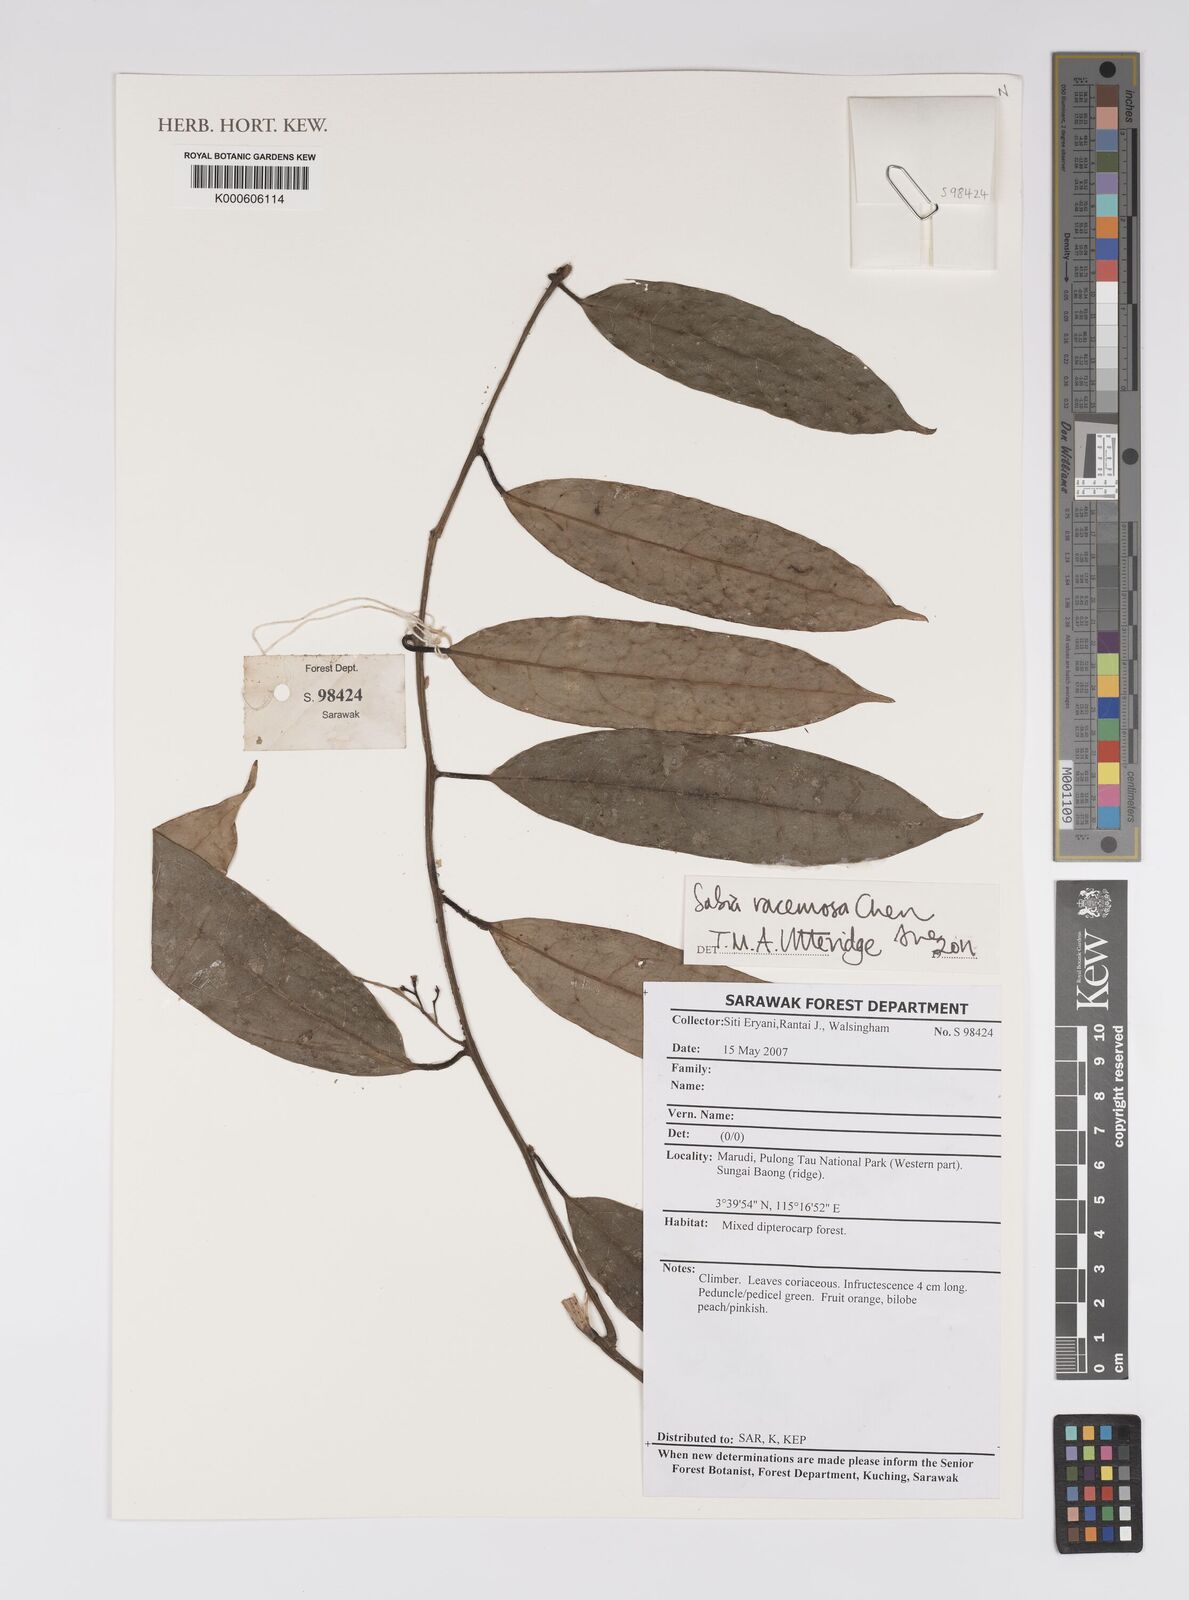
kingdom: Plantae
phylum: Tracheophyta
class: Magnoliopsida
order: Proteales
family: Sabiaceae
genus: Sabia
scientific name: Sabia racemosa
